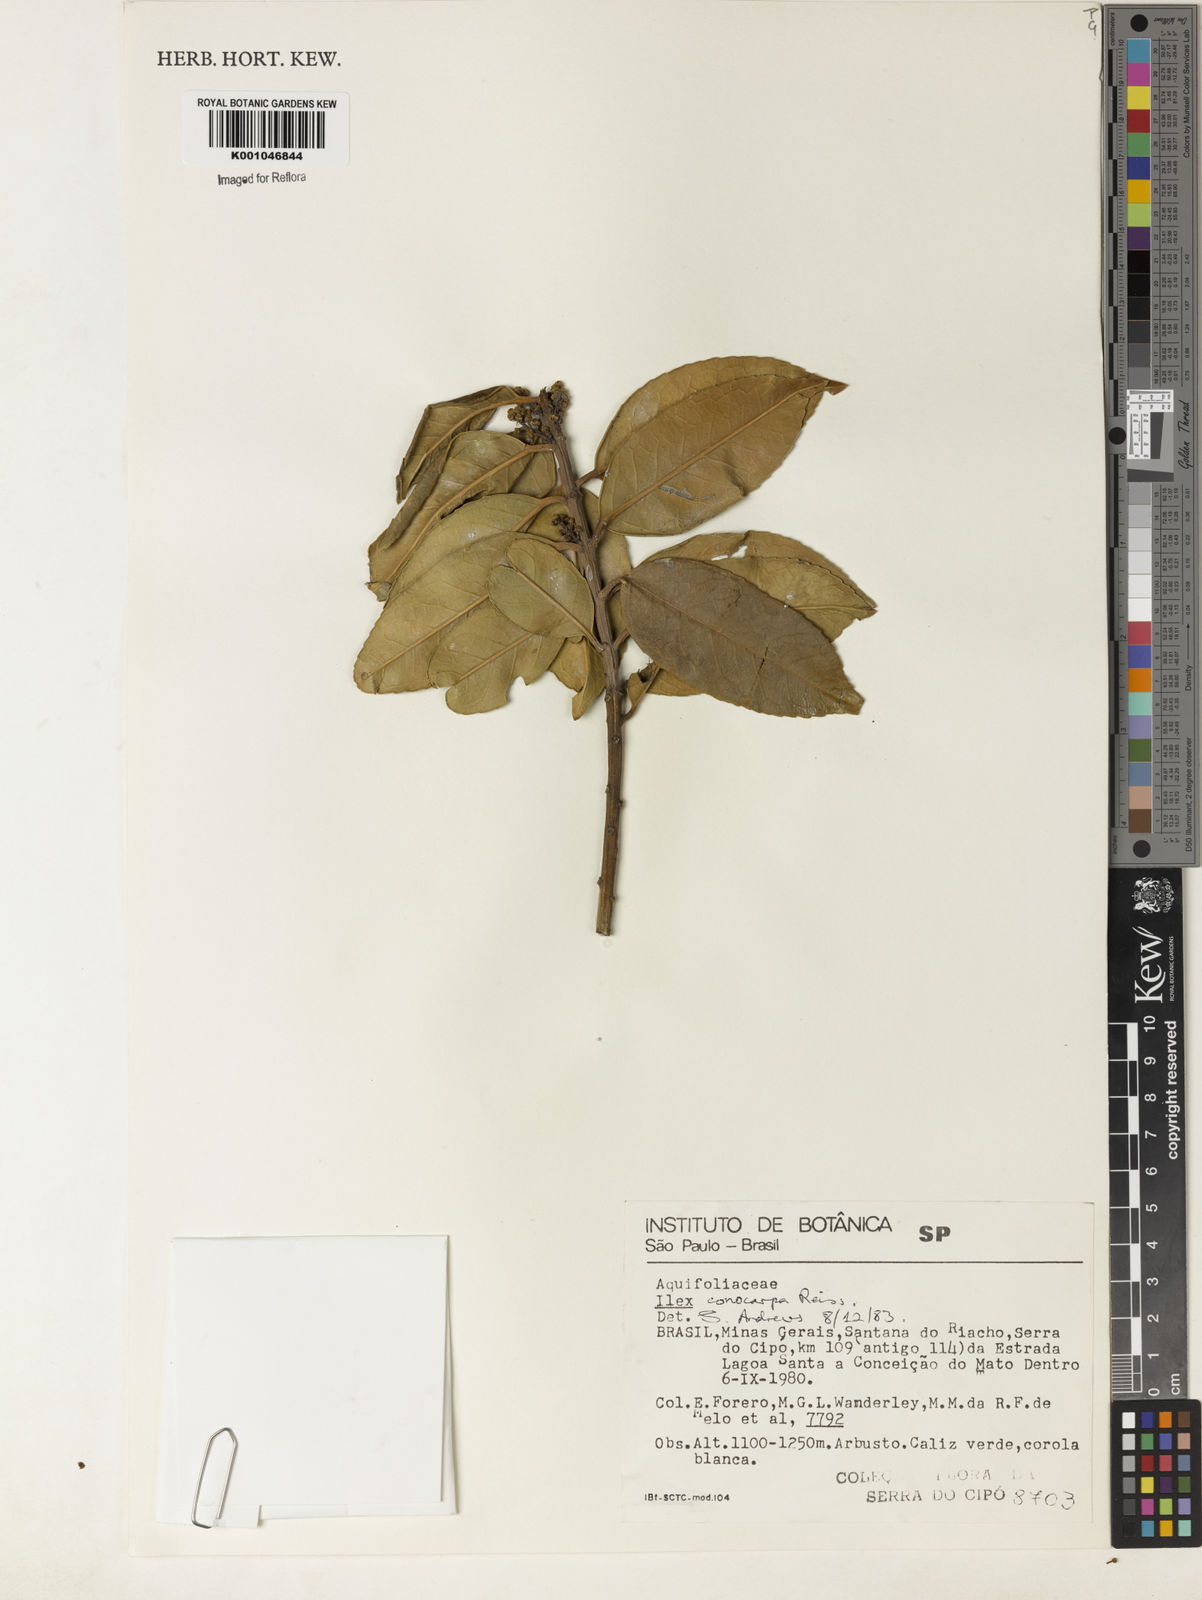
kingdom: Plantae
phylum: Tracheophyta
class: Magnoliopsida
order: Aquifoliales
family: Aquifoliaceae
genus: Ilex
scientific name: Ilex conocarpa
